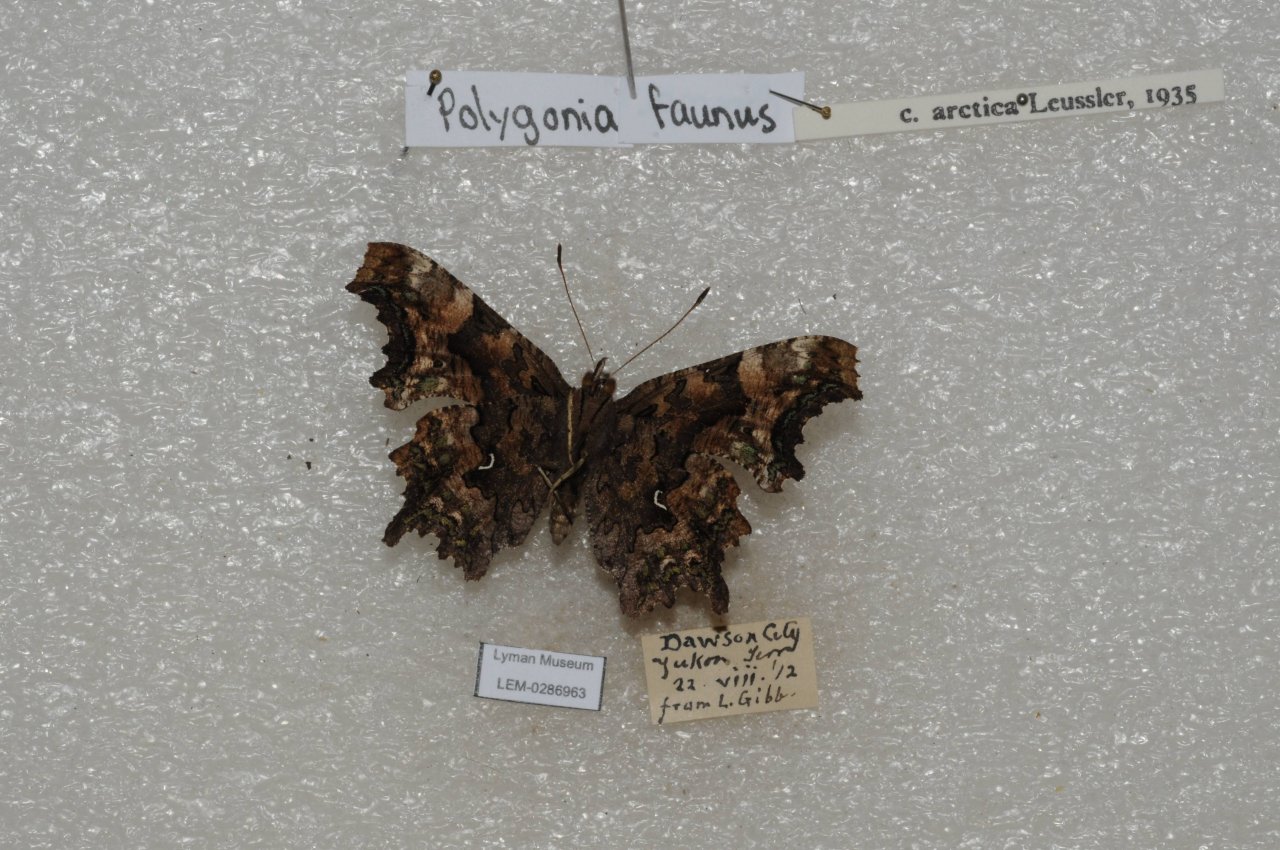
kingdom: Animalia
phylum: Arthropoda
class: Insecta
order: Lepidoptera
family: Nymphalidae
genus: Polygonia
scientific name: Polygonia faunus
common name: Green Comma
